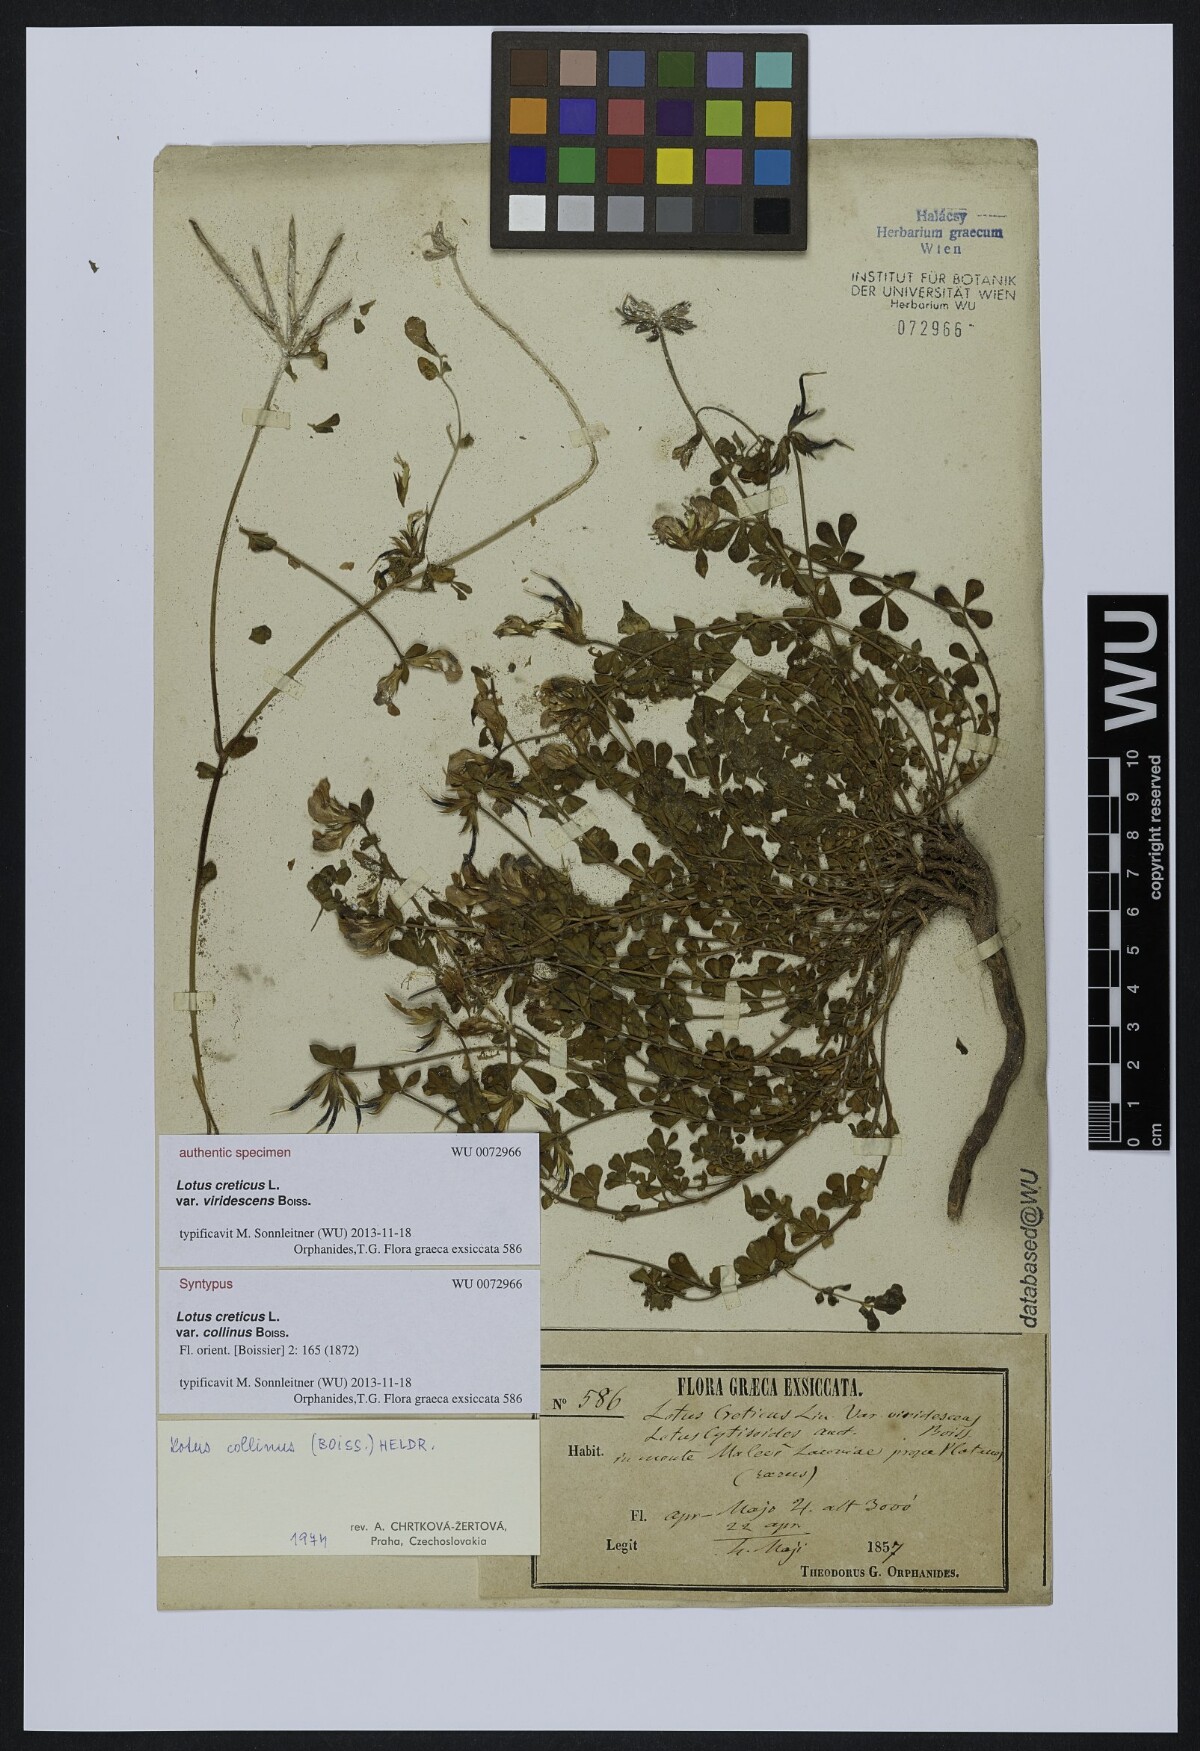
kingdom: Plantae
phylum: Tracheophyta
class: Magnoliopsida
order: Fabales
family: Fabaceae
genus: Lotus
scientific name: Lotus longisiliquosus
